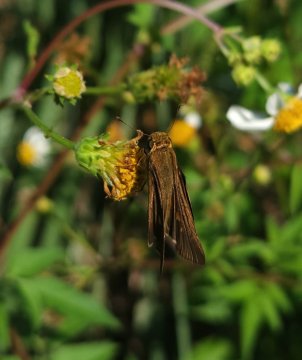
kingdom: Animalia
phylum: Arthropoda
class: Insecta
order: Lepidoptera
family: Hesperiidae
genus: Panoquina
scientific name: Panoquina ocola
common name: Ocola Skipper
